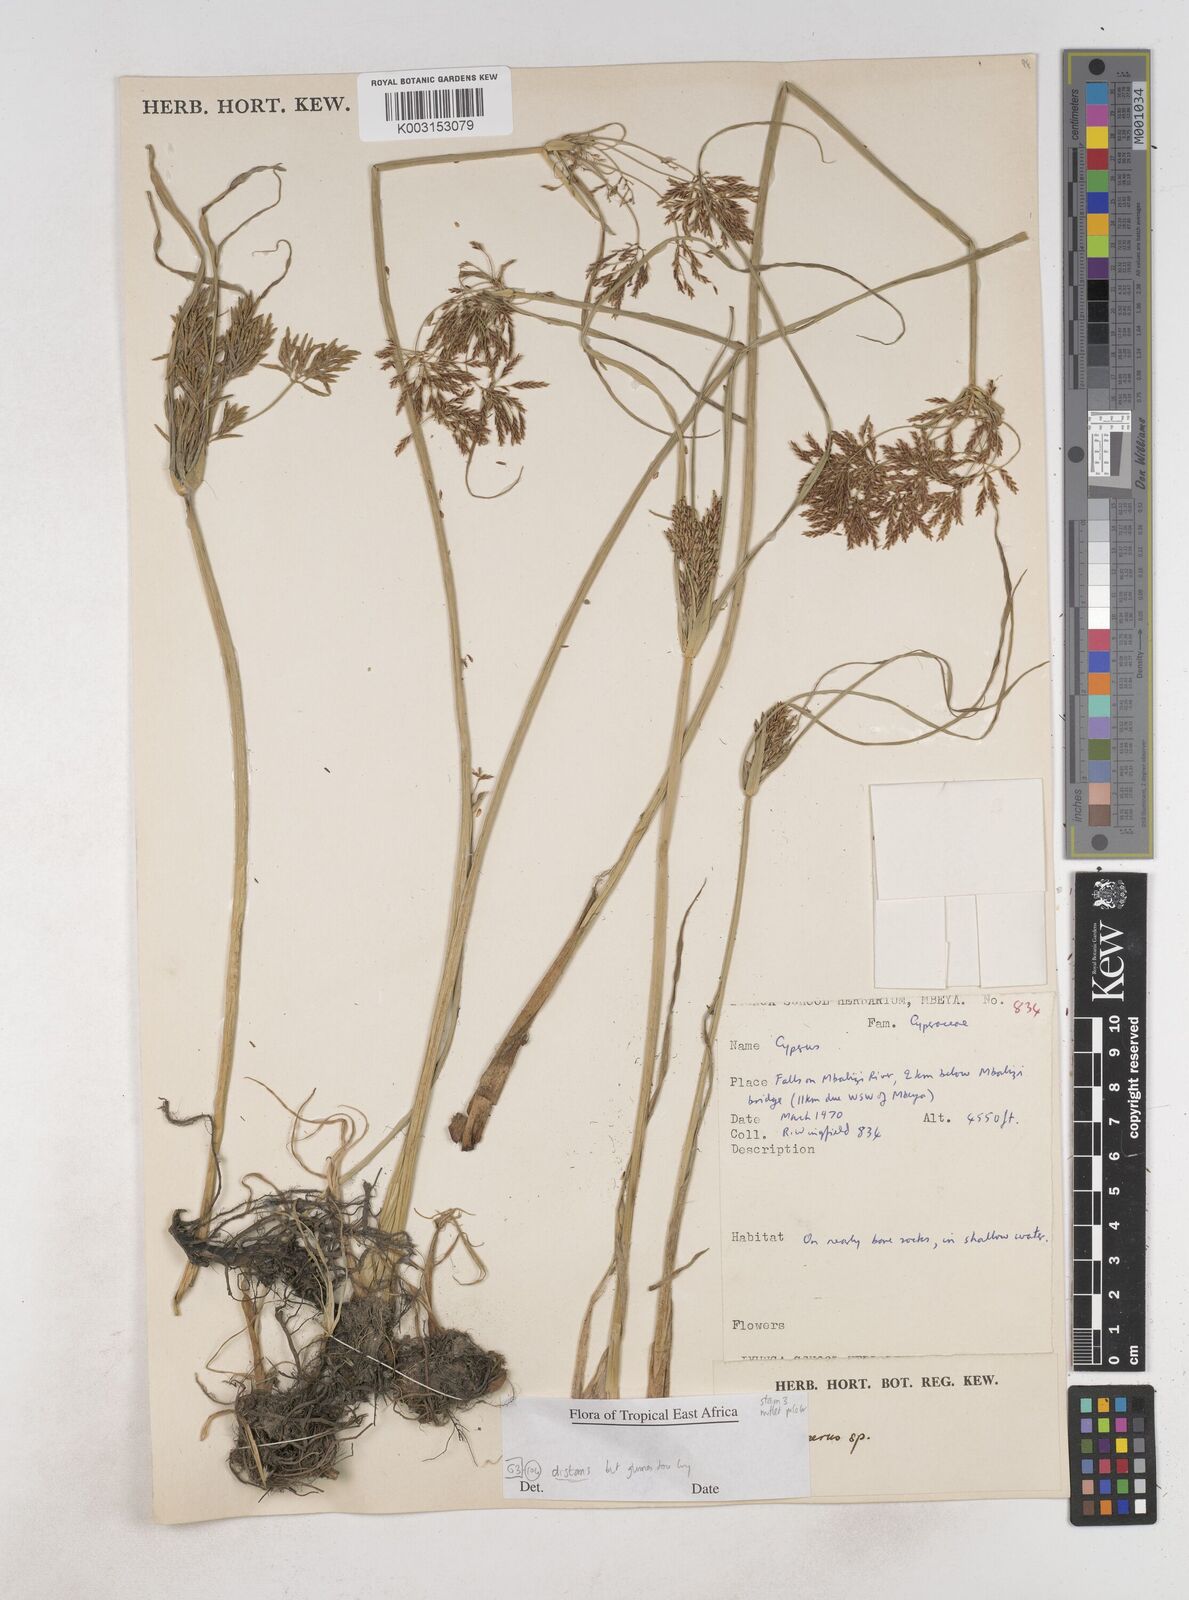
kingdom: Plantae
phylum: Tracheophyta
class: Liliopsida
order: Poales
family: Cyperaceae
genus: Cyperus
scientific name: Cyperus distans
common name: Slender cyperus
